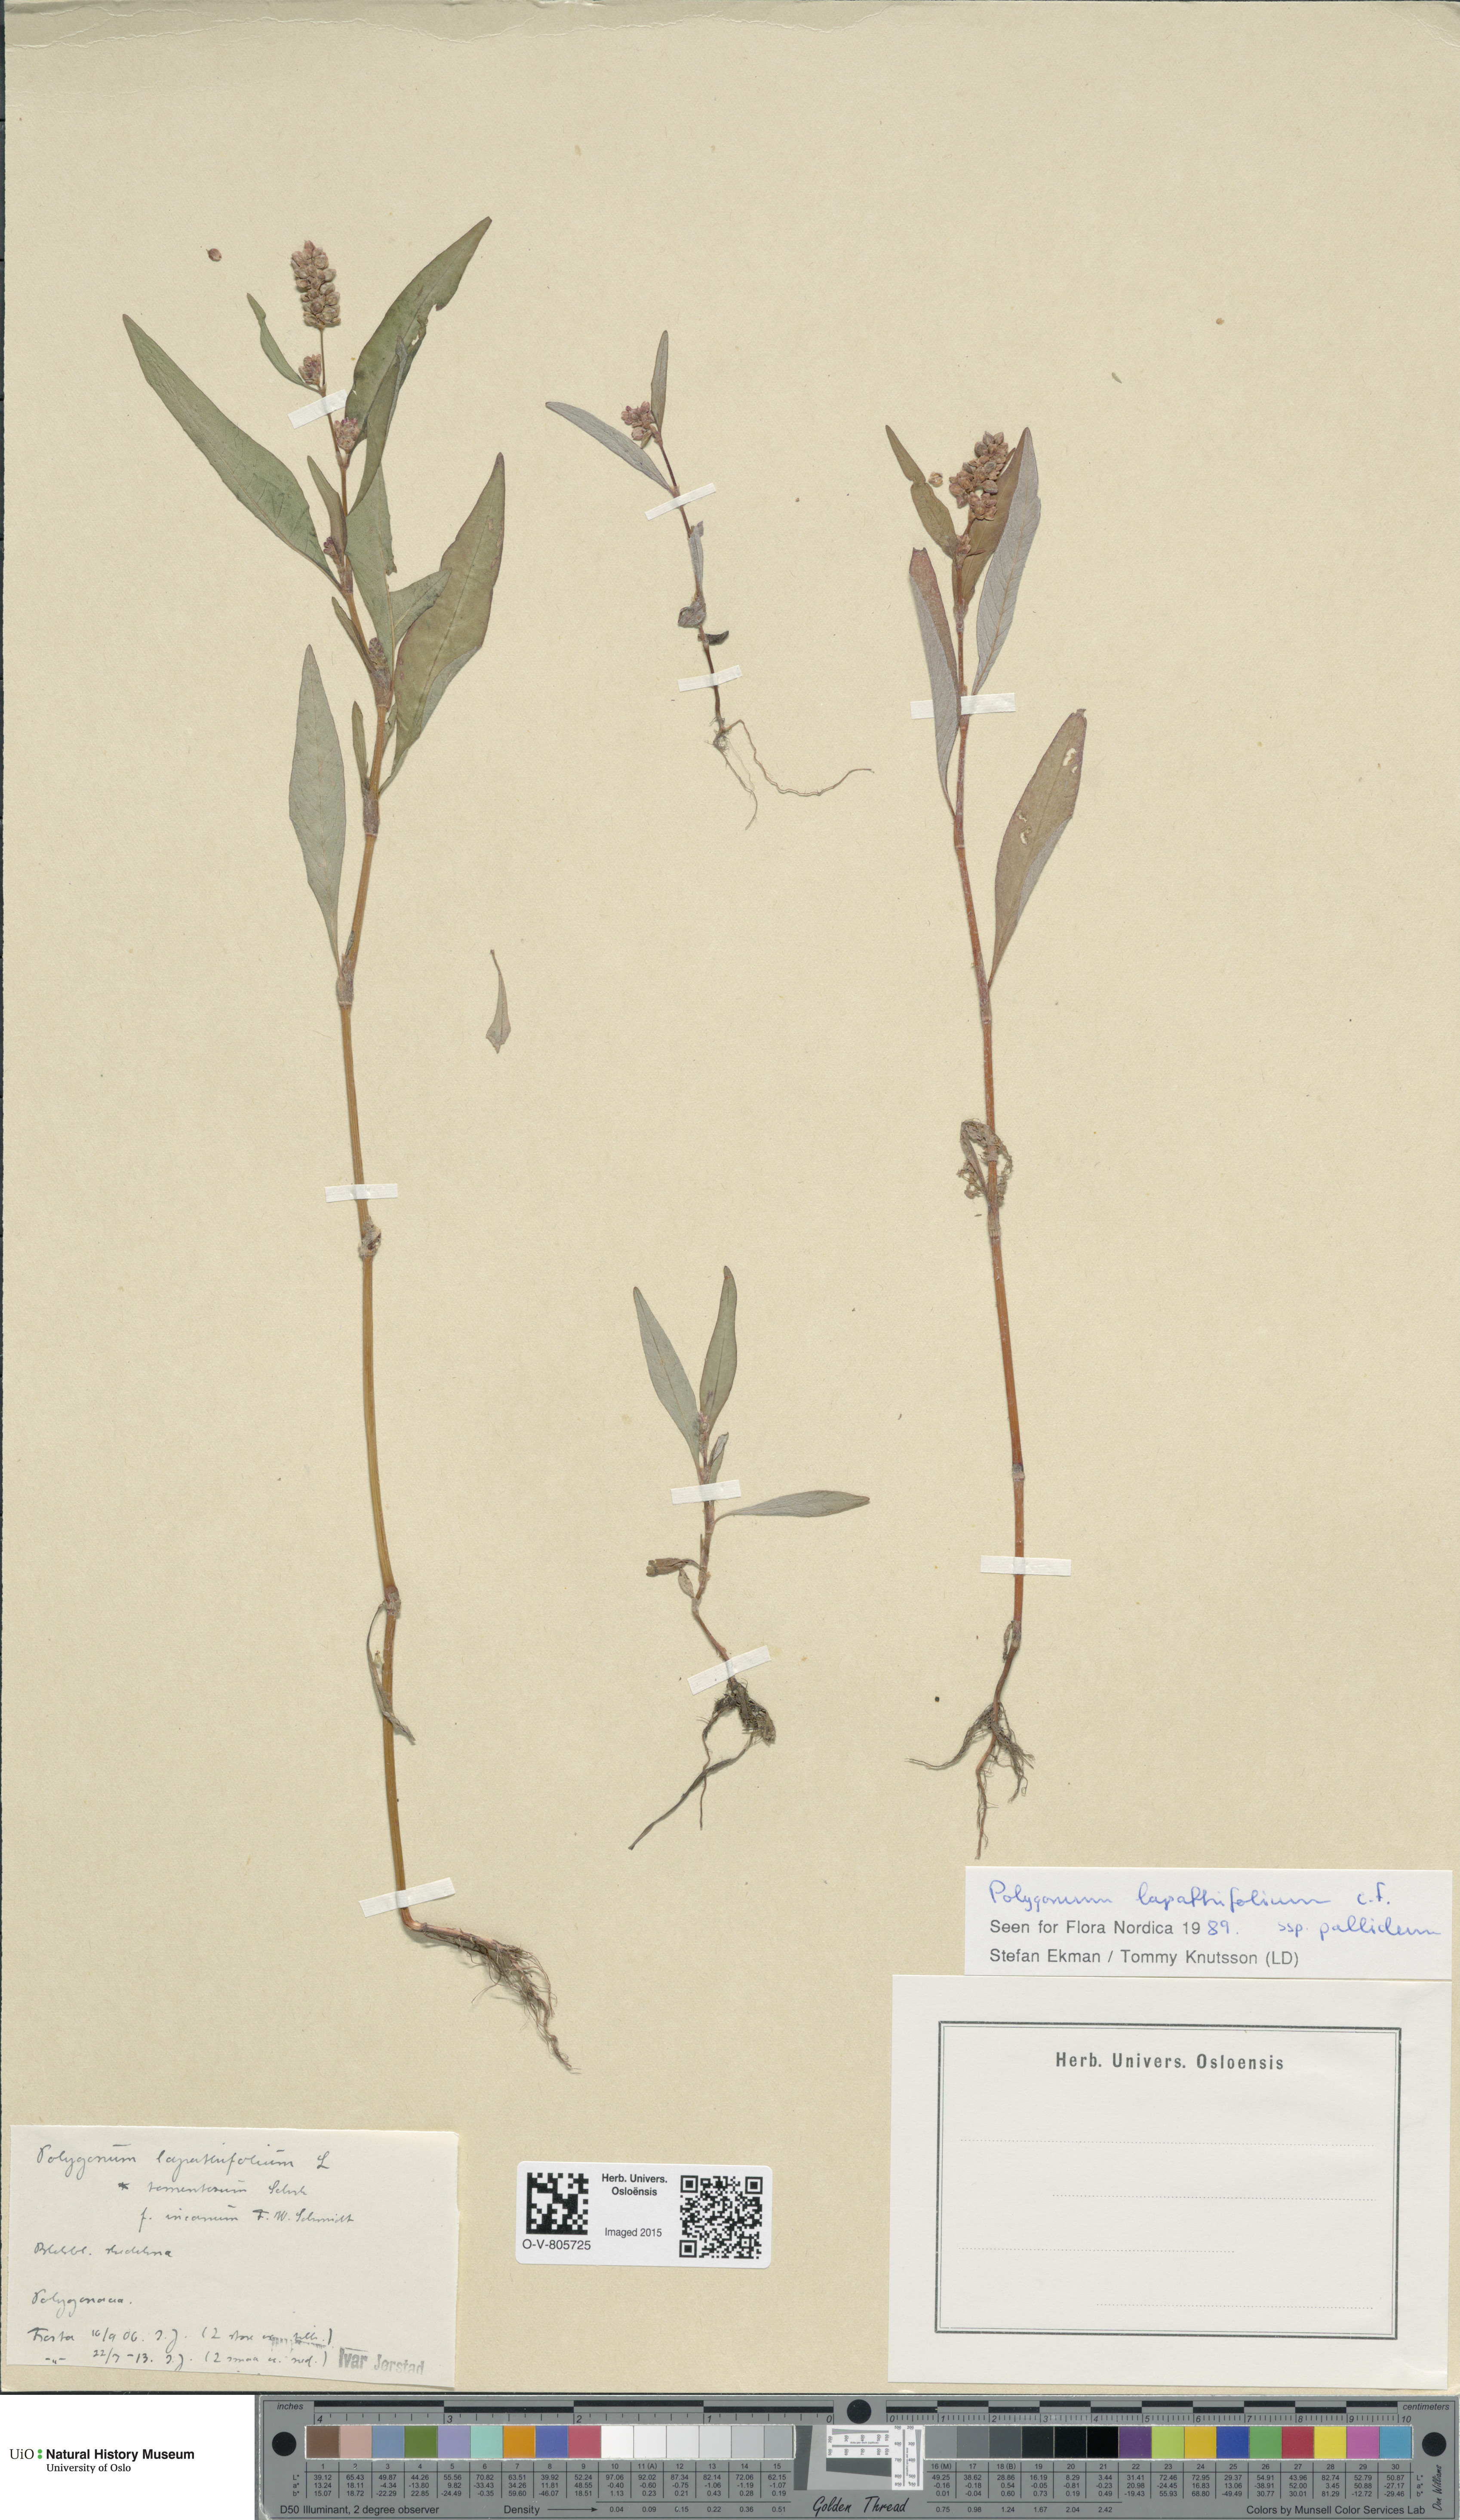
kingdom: Plantae
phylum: Tracheophyta
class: Magnoliopsida
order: Caryophyllales
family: Polygonaceae
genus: Persicaria
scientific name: Persicaria lapathifolia
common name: Curlytop knotweed
